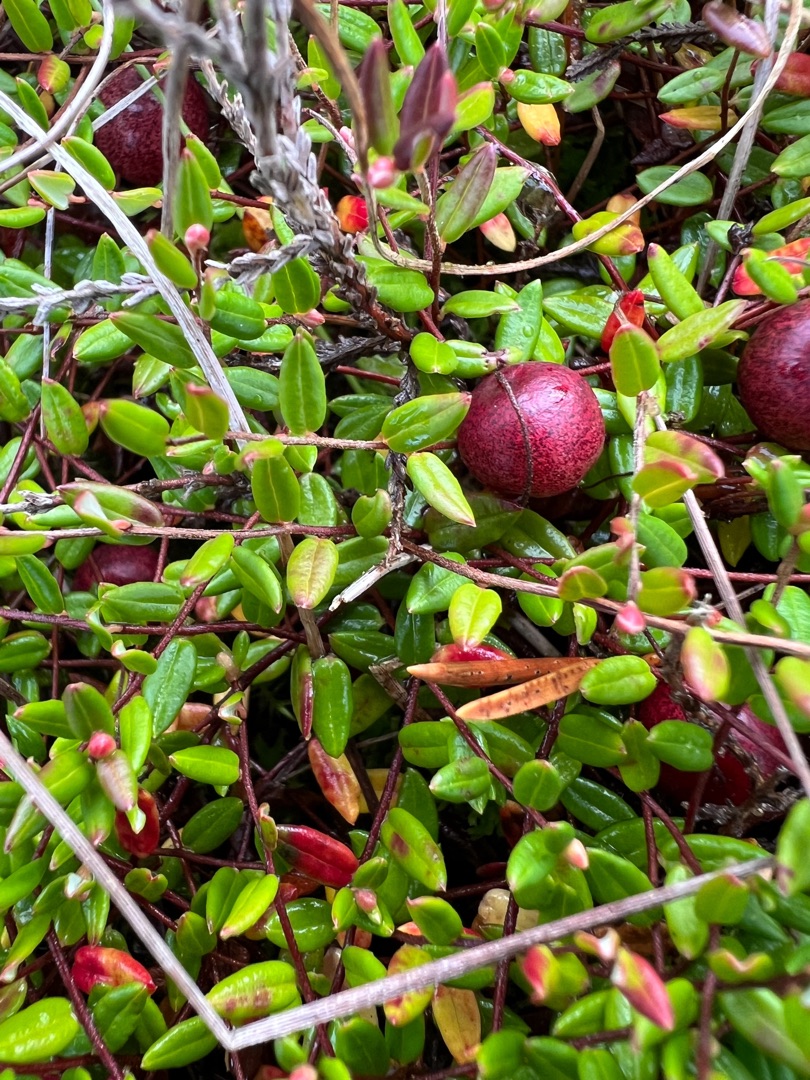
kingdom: Plantae
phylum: Tracheophyta
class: Magnoliopsida
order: Ericales
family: Ericaceae
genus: Vaccinium
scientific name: Vaccinium oxycoccos
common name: Tranebær
